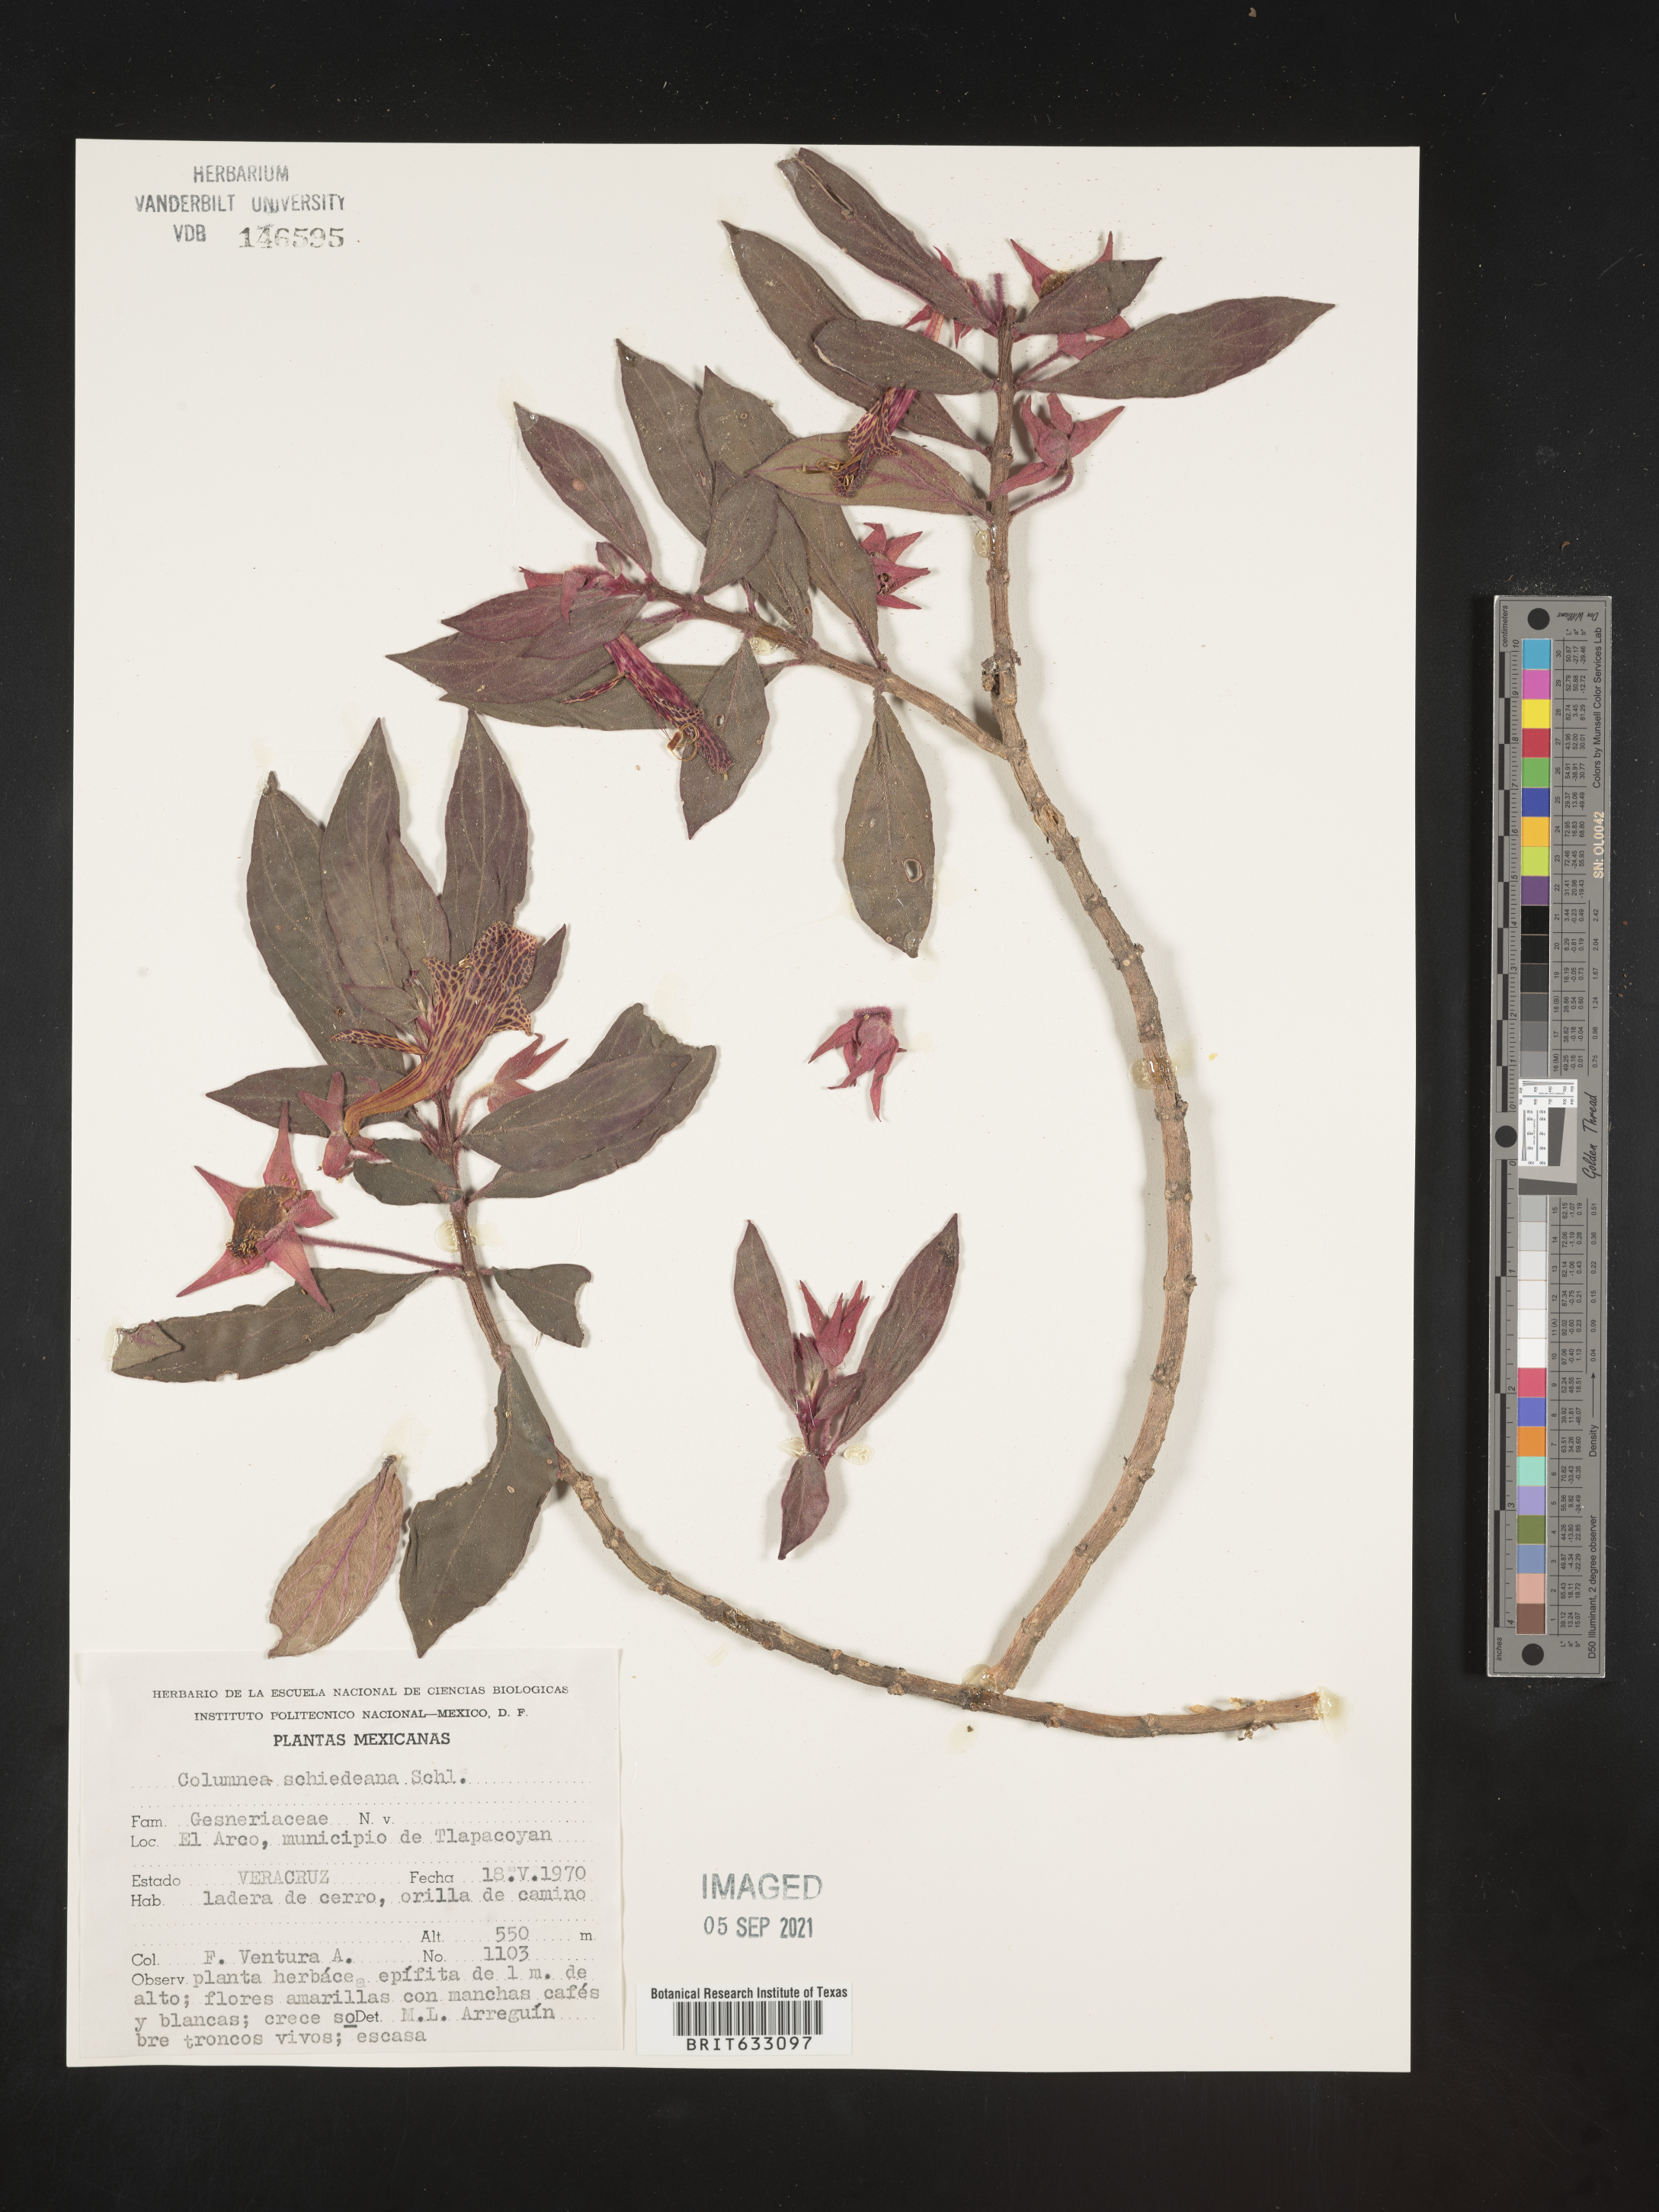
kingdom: Plantae
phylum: Tracheophyta
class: Magnoliopsida
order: Lamiales
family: Gesneriaceae
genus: Columnea
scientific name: Columnea
